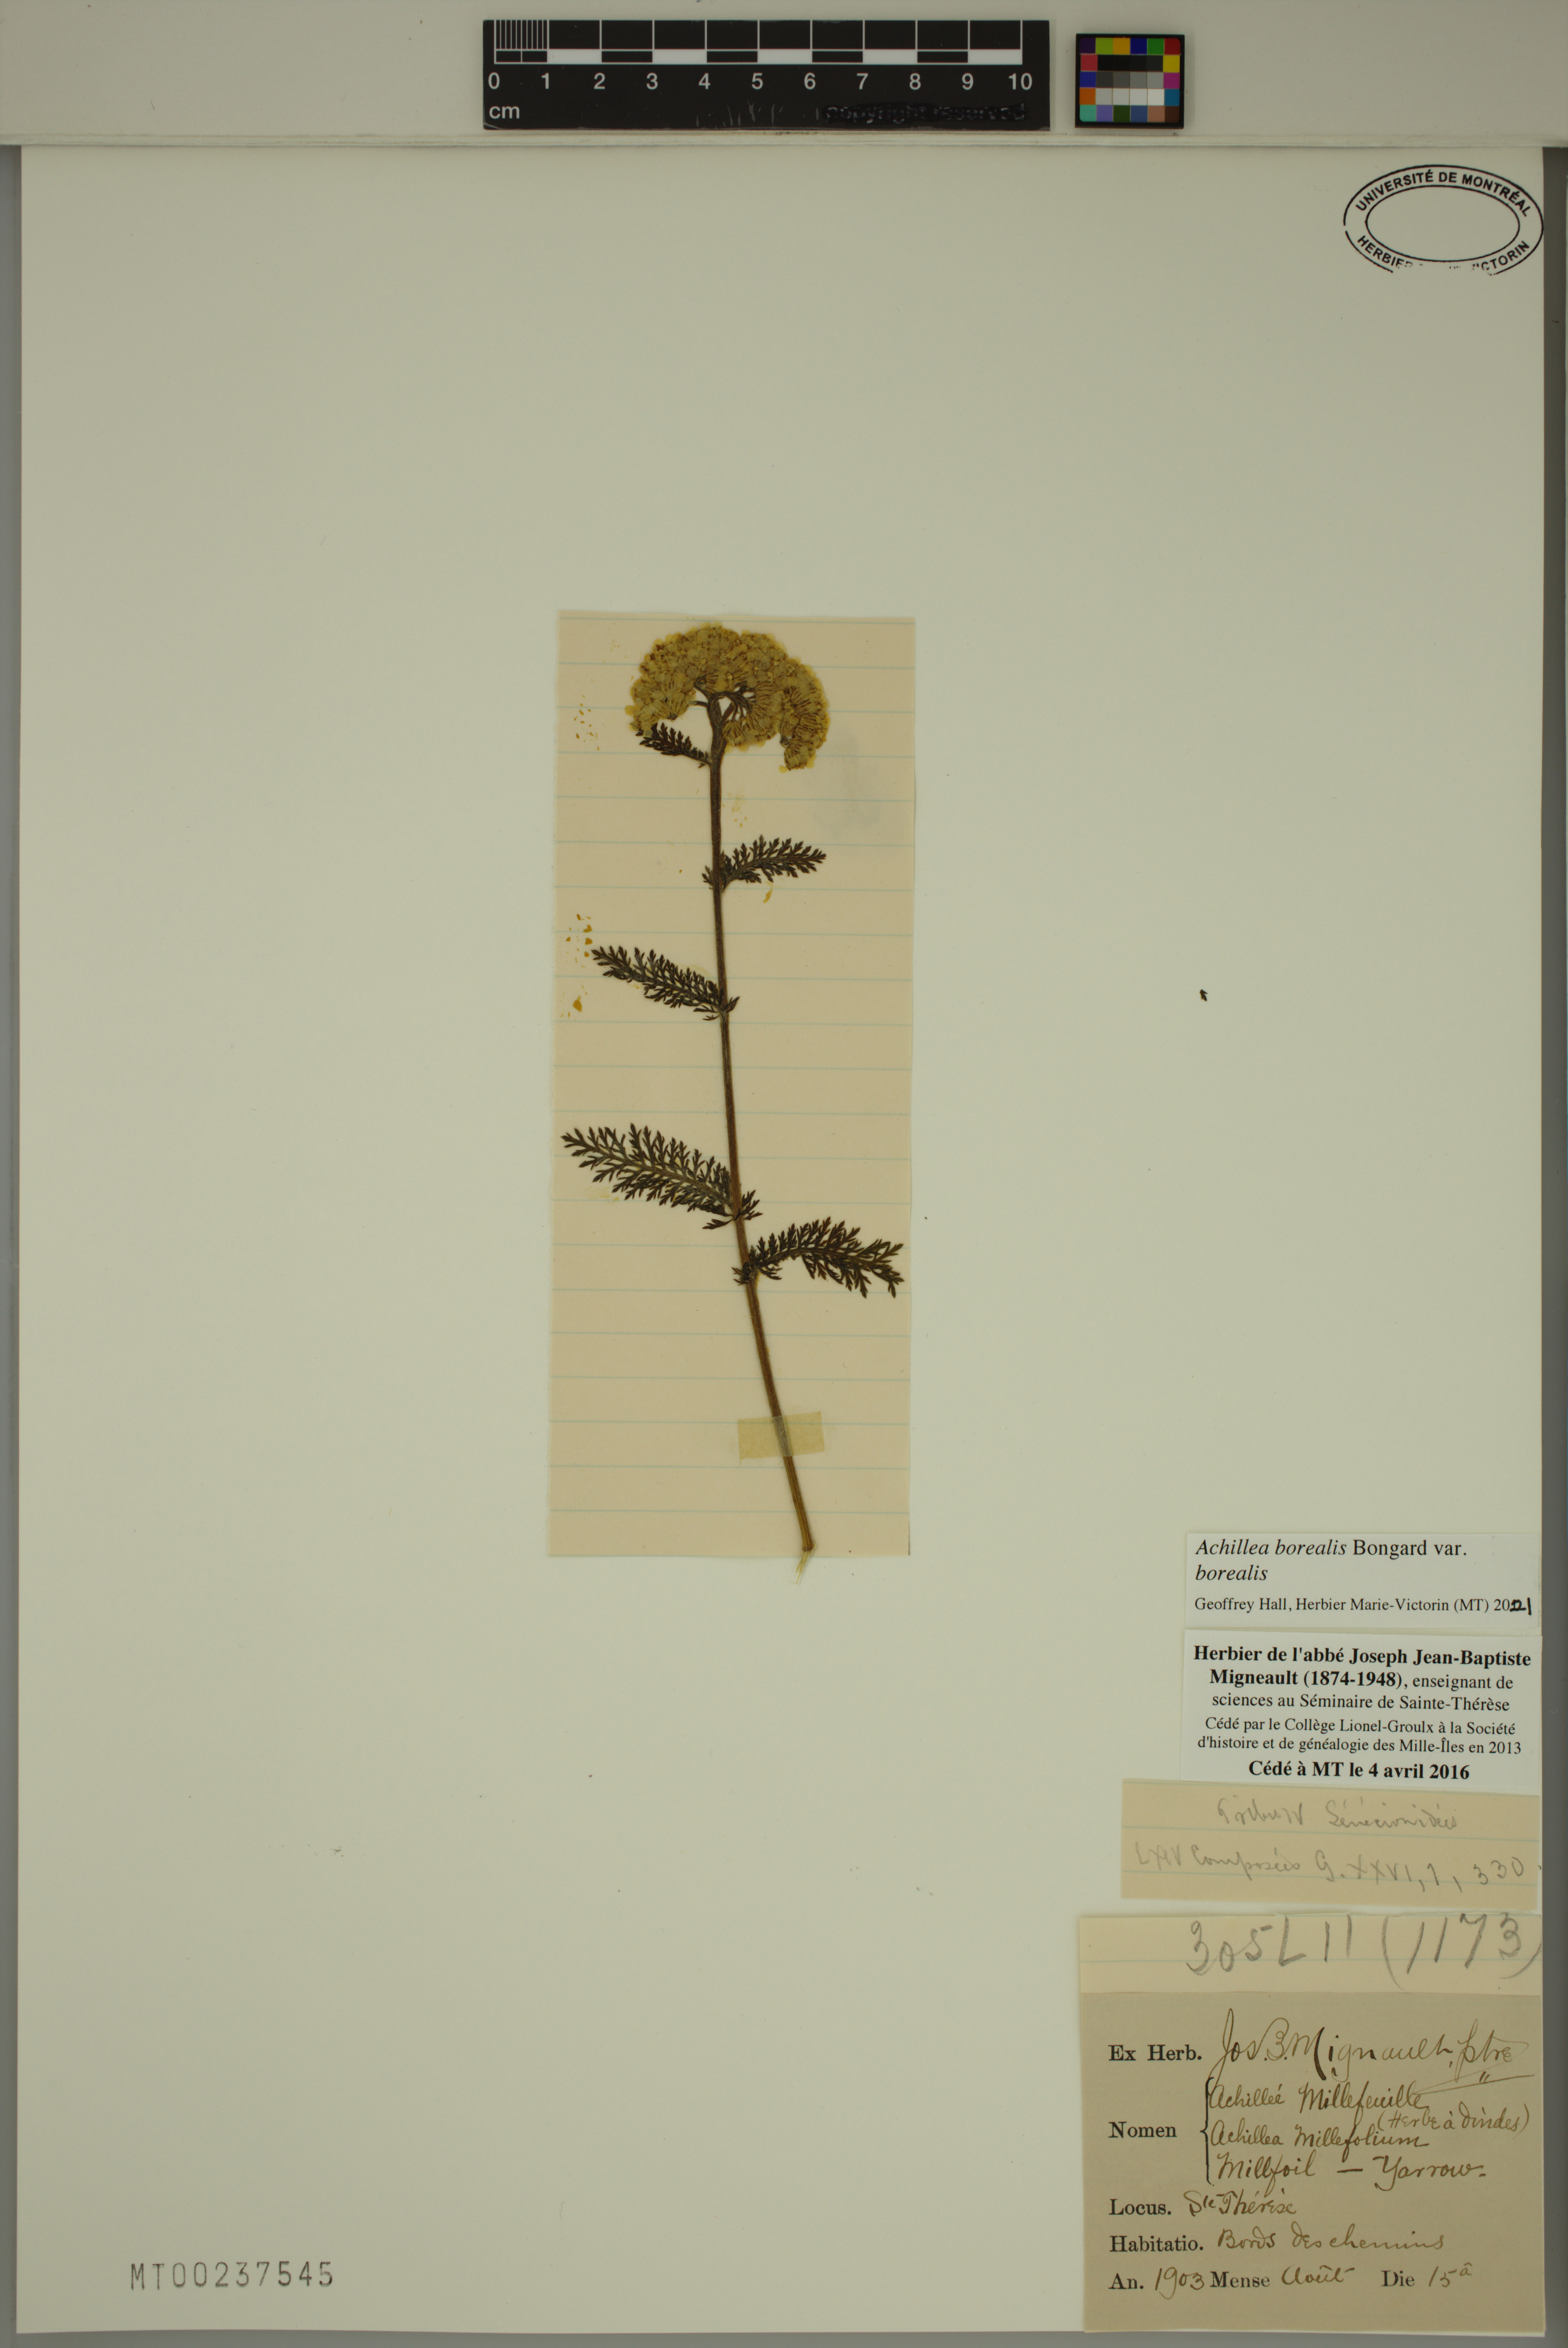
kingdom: Plantae
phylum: Tracheophyta
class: Magnoliopsida
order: Asterales
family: Asteraceae
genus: Achillea
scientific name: Achillea millefolium
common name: Yarrow
